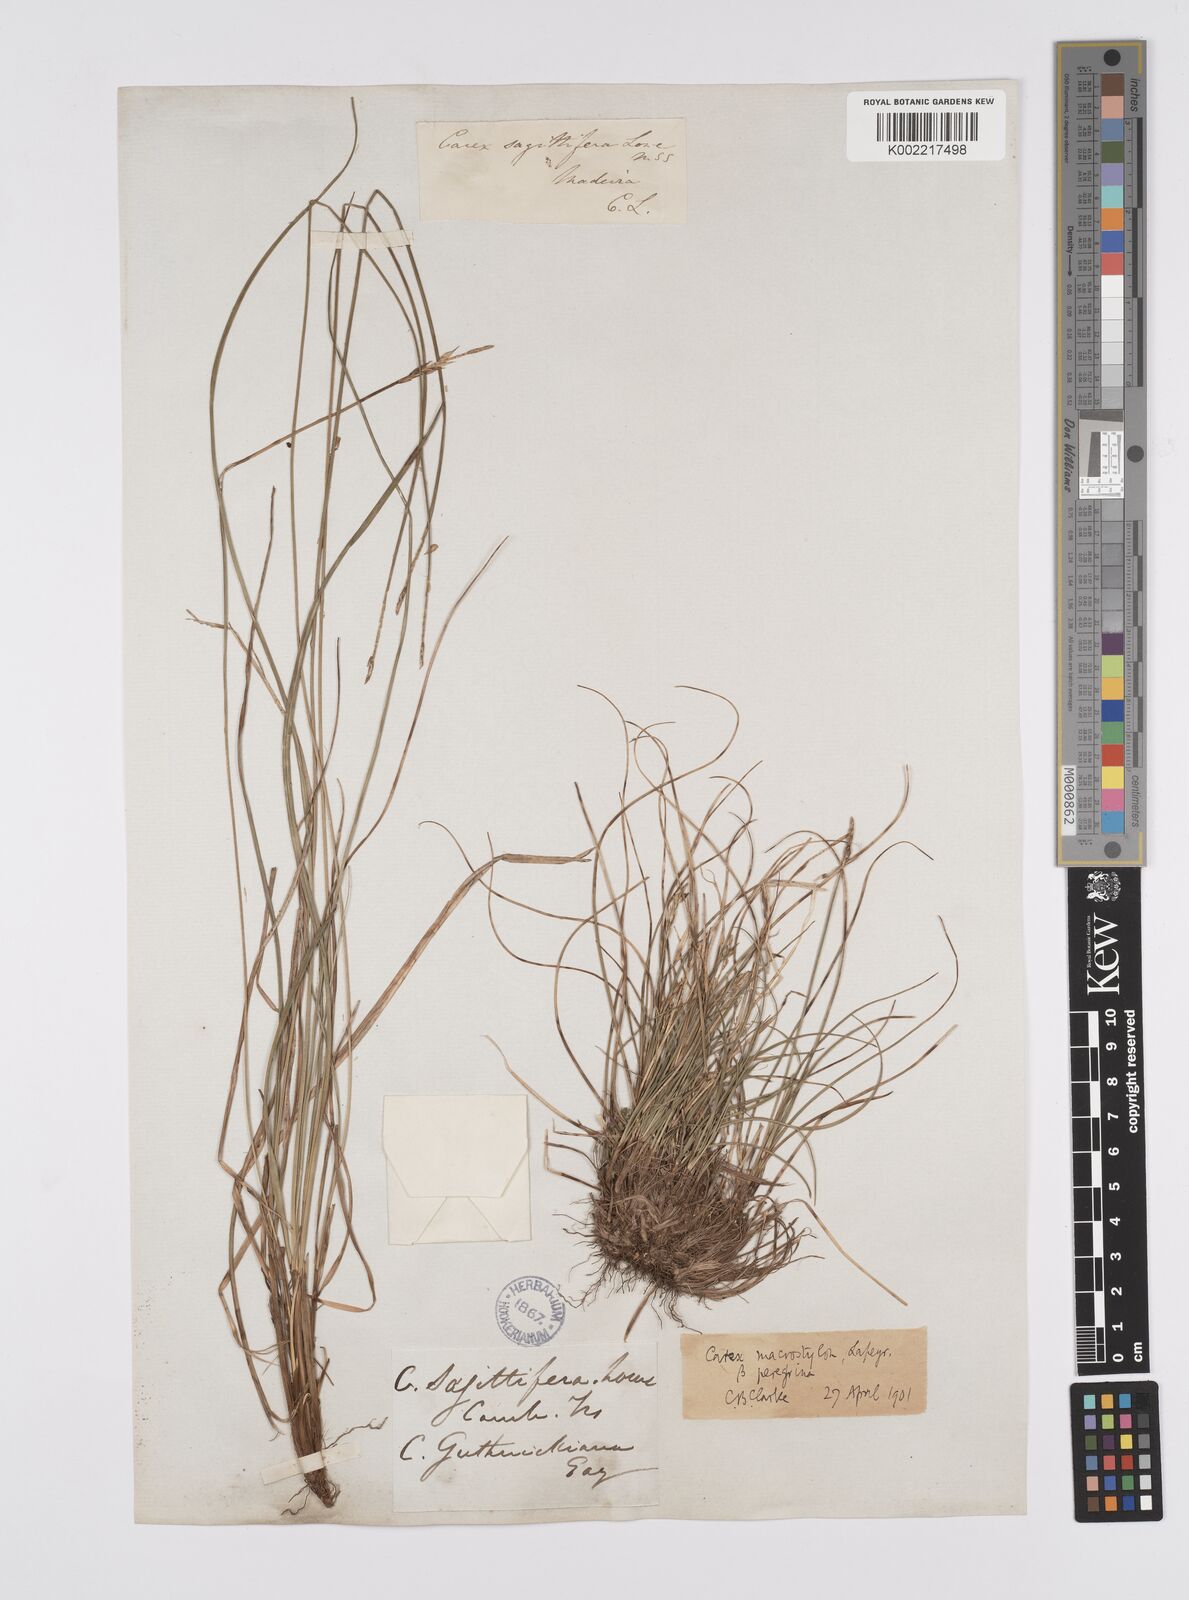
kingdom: Plantae
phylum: Tracheophyta
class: Liliopsida
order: Poales
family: Cyperaceae
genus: Carex
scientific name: Carex peregrina
